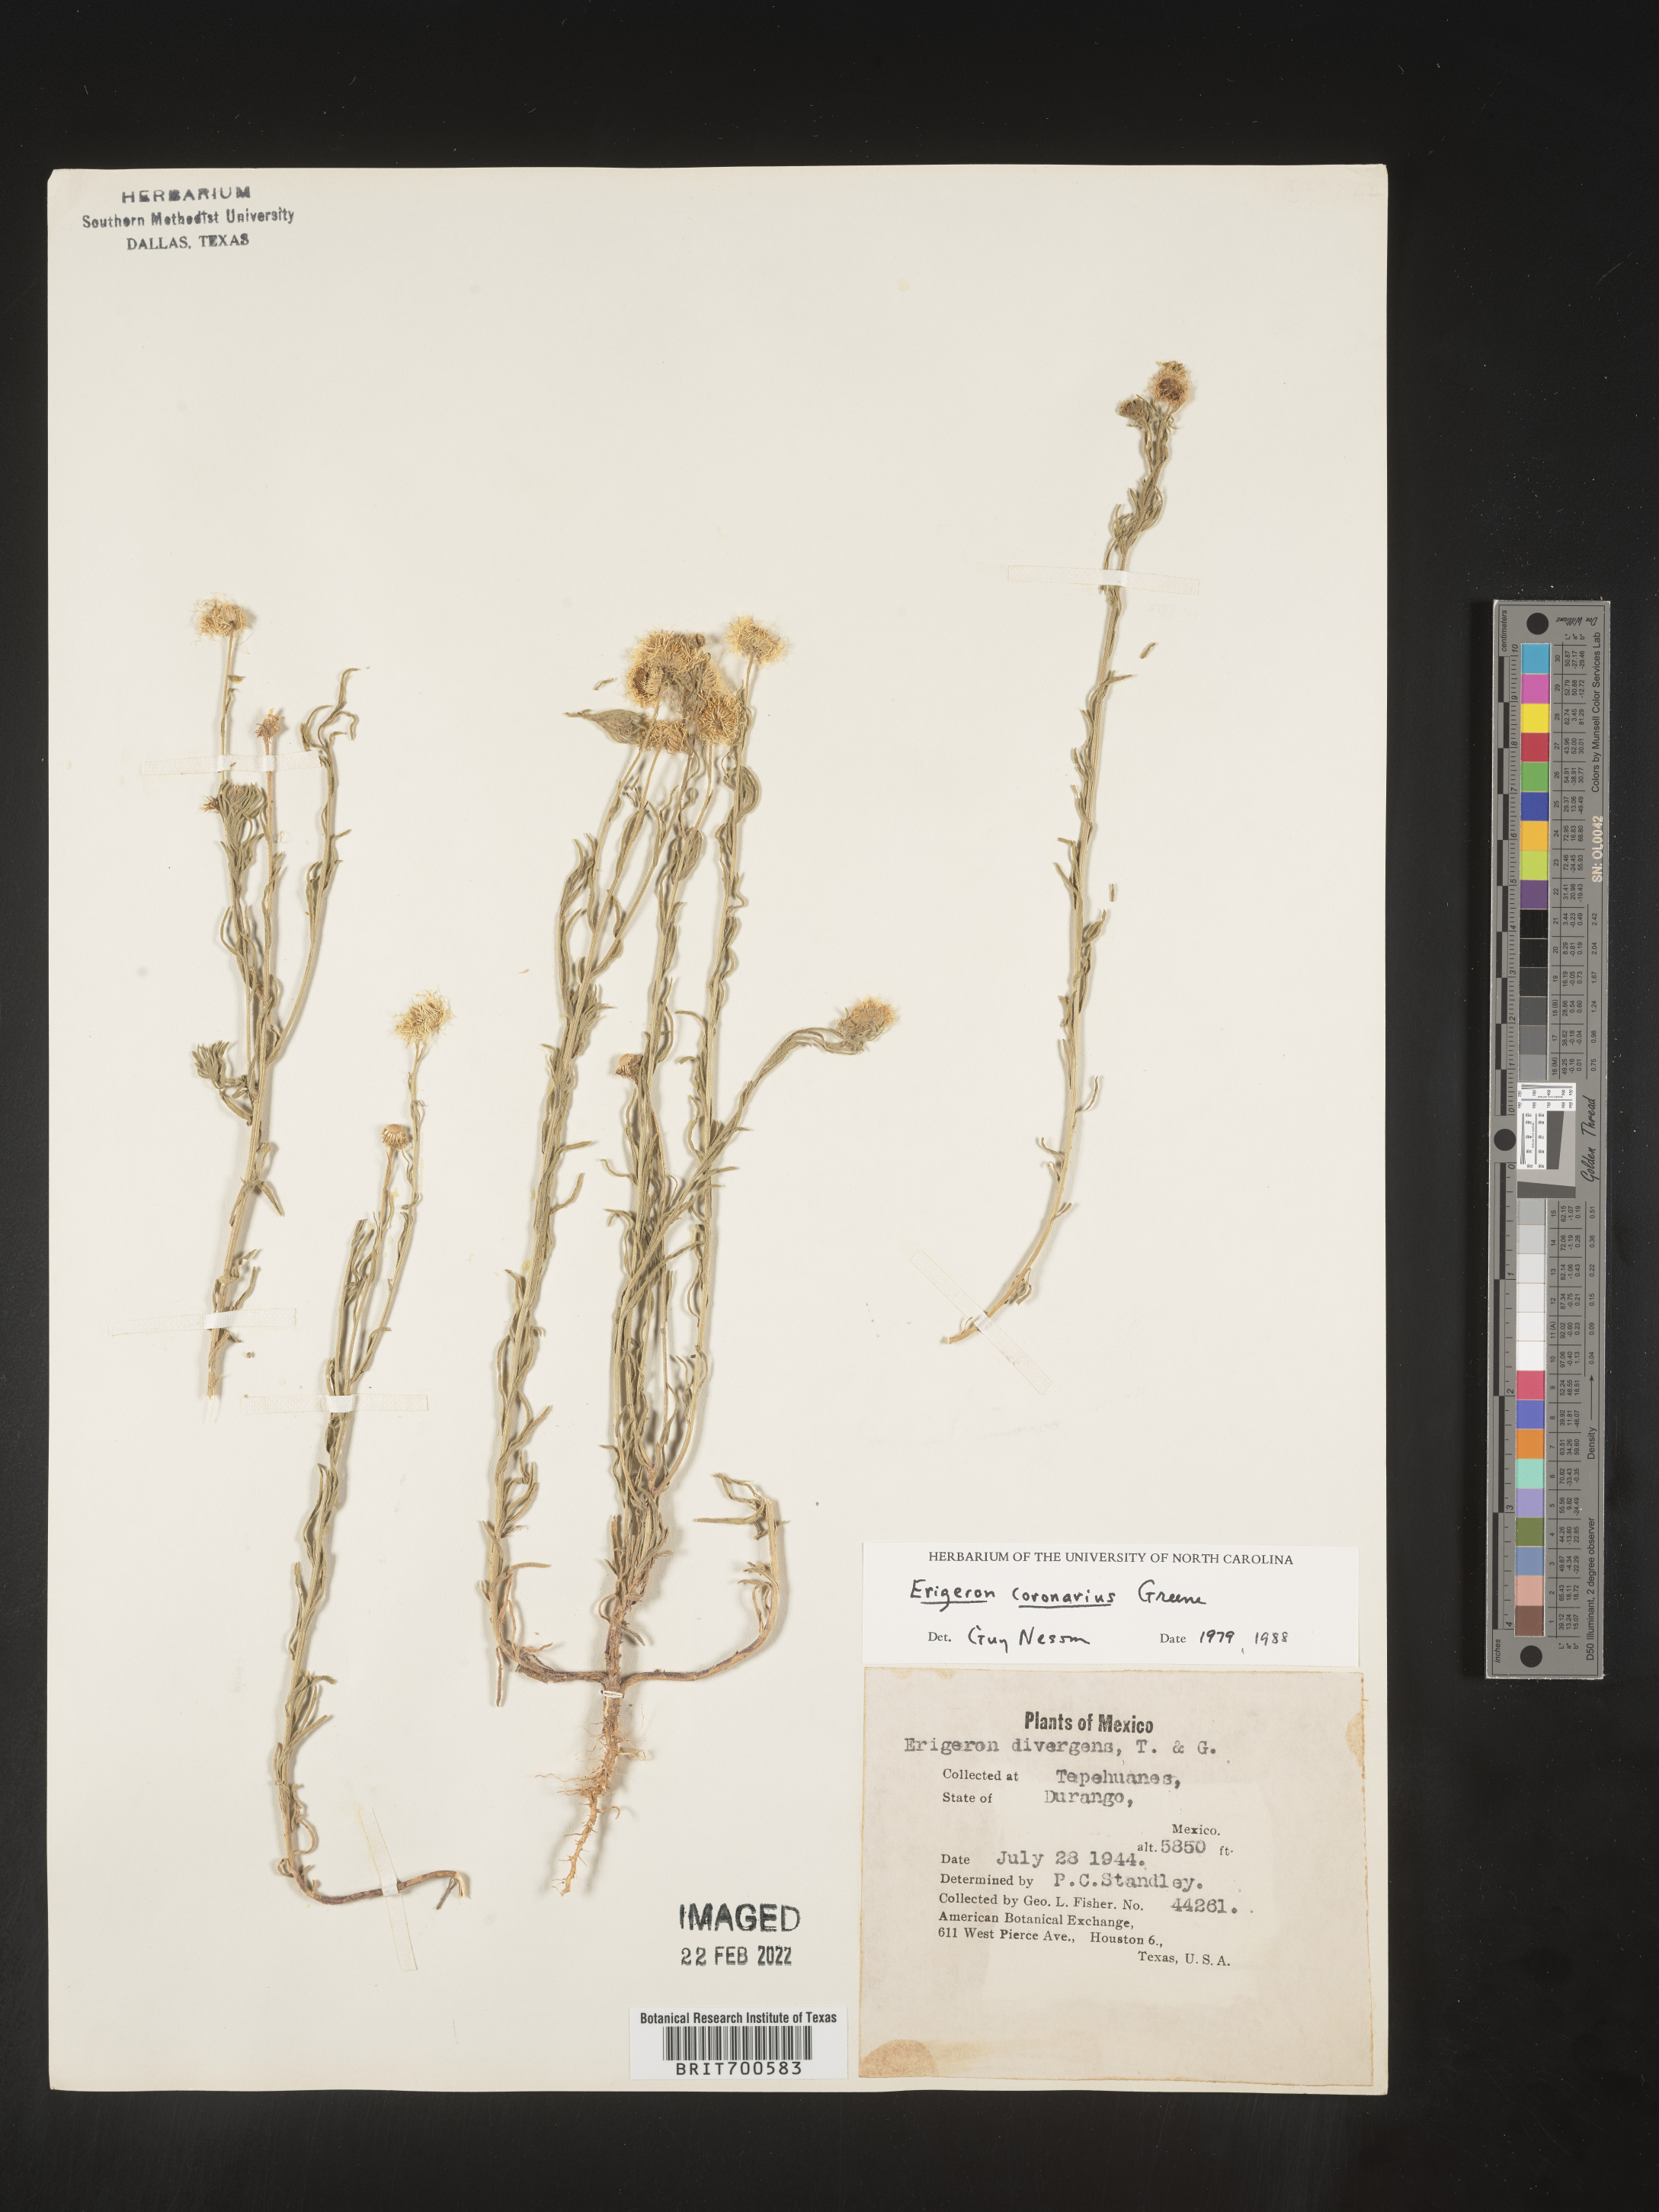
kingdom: Plantae
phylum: Tracheophyta
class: Magnoliopsida
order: Asterales
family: Asteraceae
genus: Erigeron
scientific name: Erigeron coronarius
